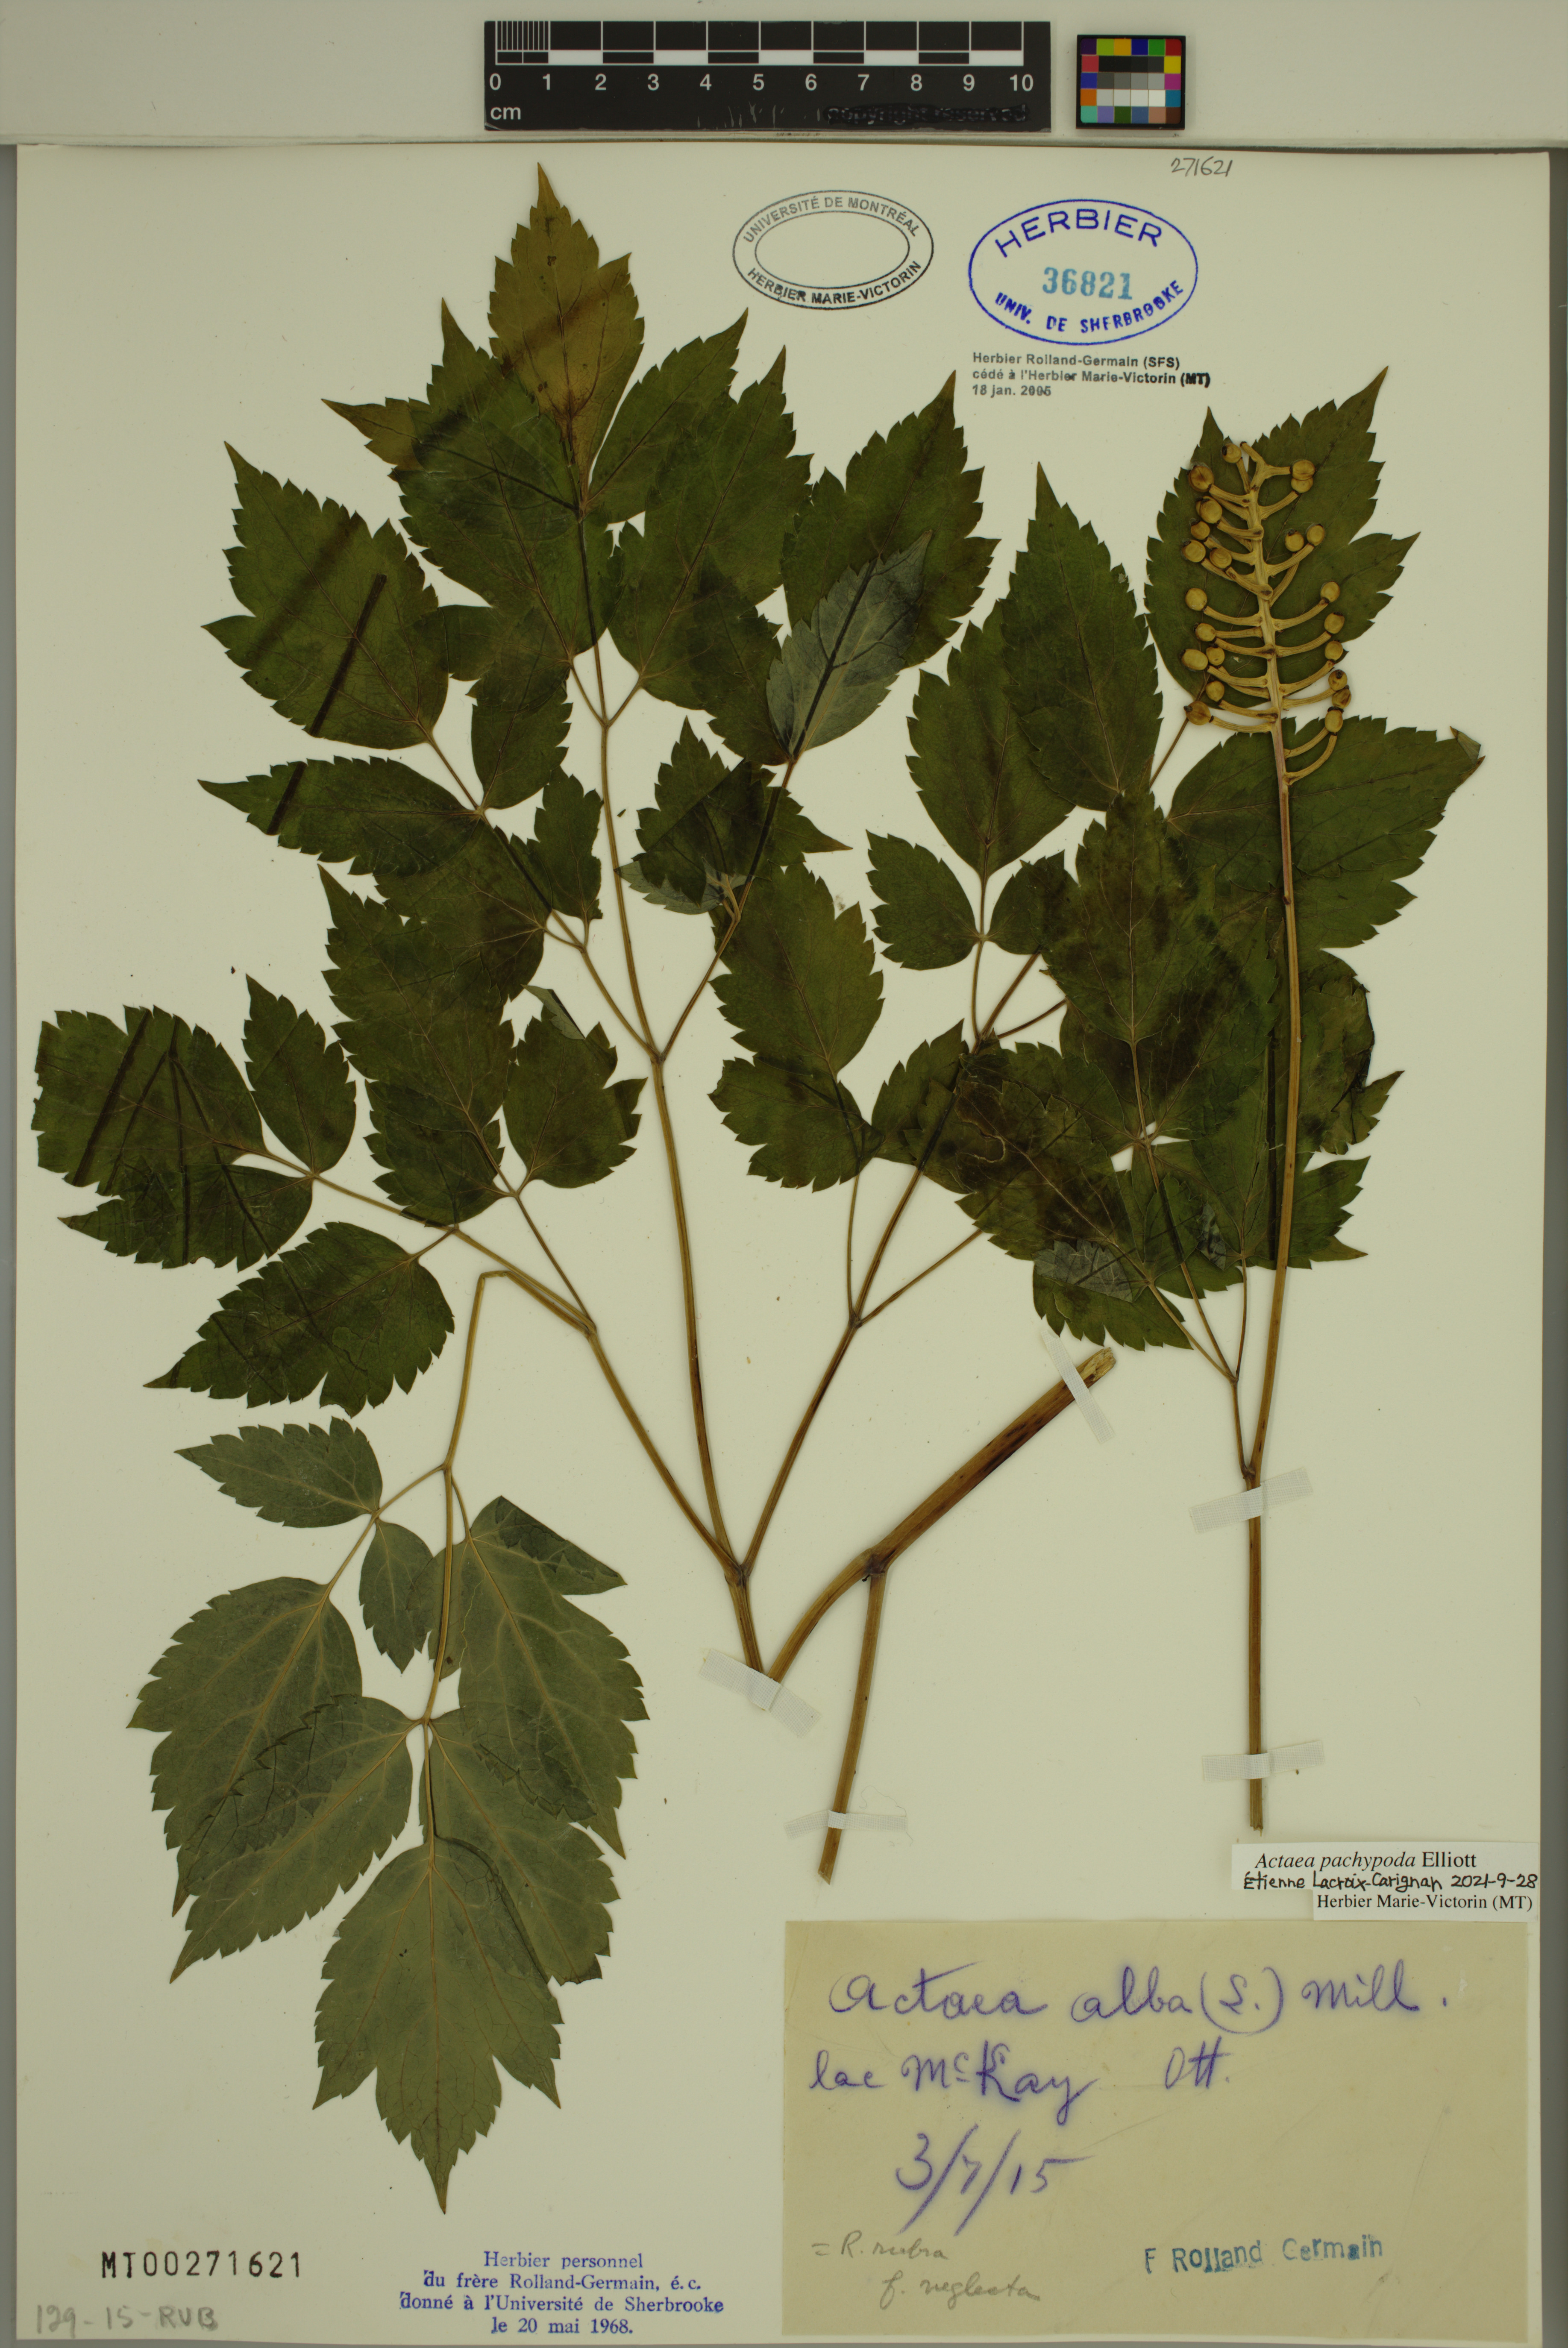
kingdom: Plantae
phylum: Tracheophyta
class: Magnoliopsida
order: Ranunculales
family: Ranunculaceae
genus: Actaea
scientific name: Actaea pachypoda
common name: Doll's-eyes
